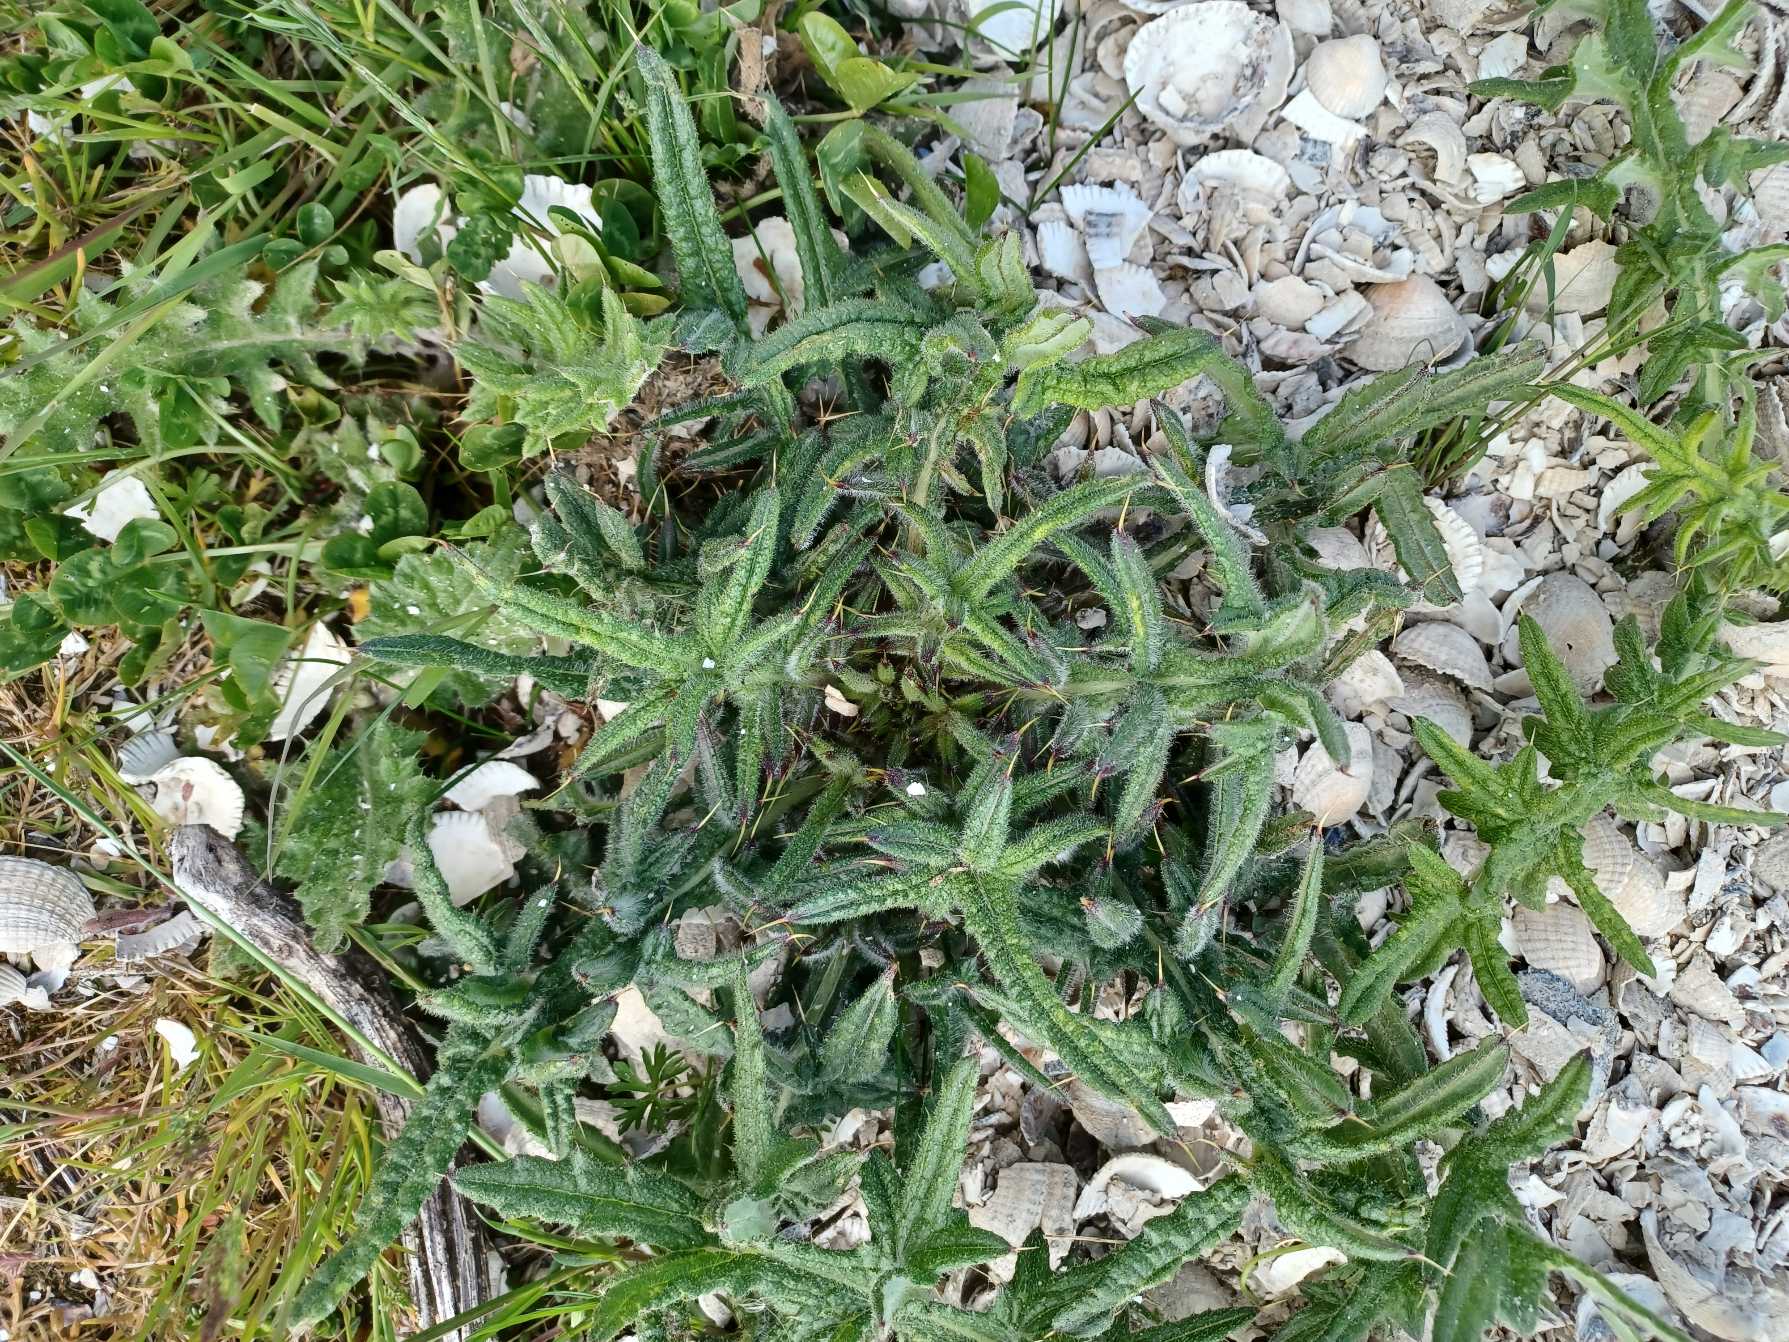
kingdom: Plantae
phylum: Tracheophyta
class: Magnoliopsida
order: Asterales
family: Asteraceae
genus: Cirsium
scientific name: Cirsium vulgare
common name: Horse-tidsel
